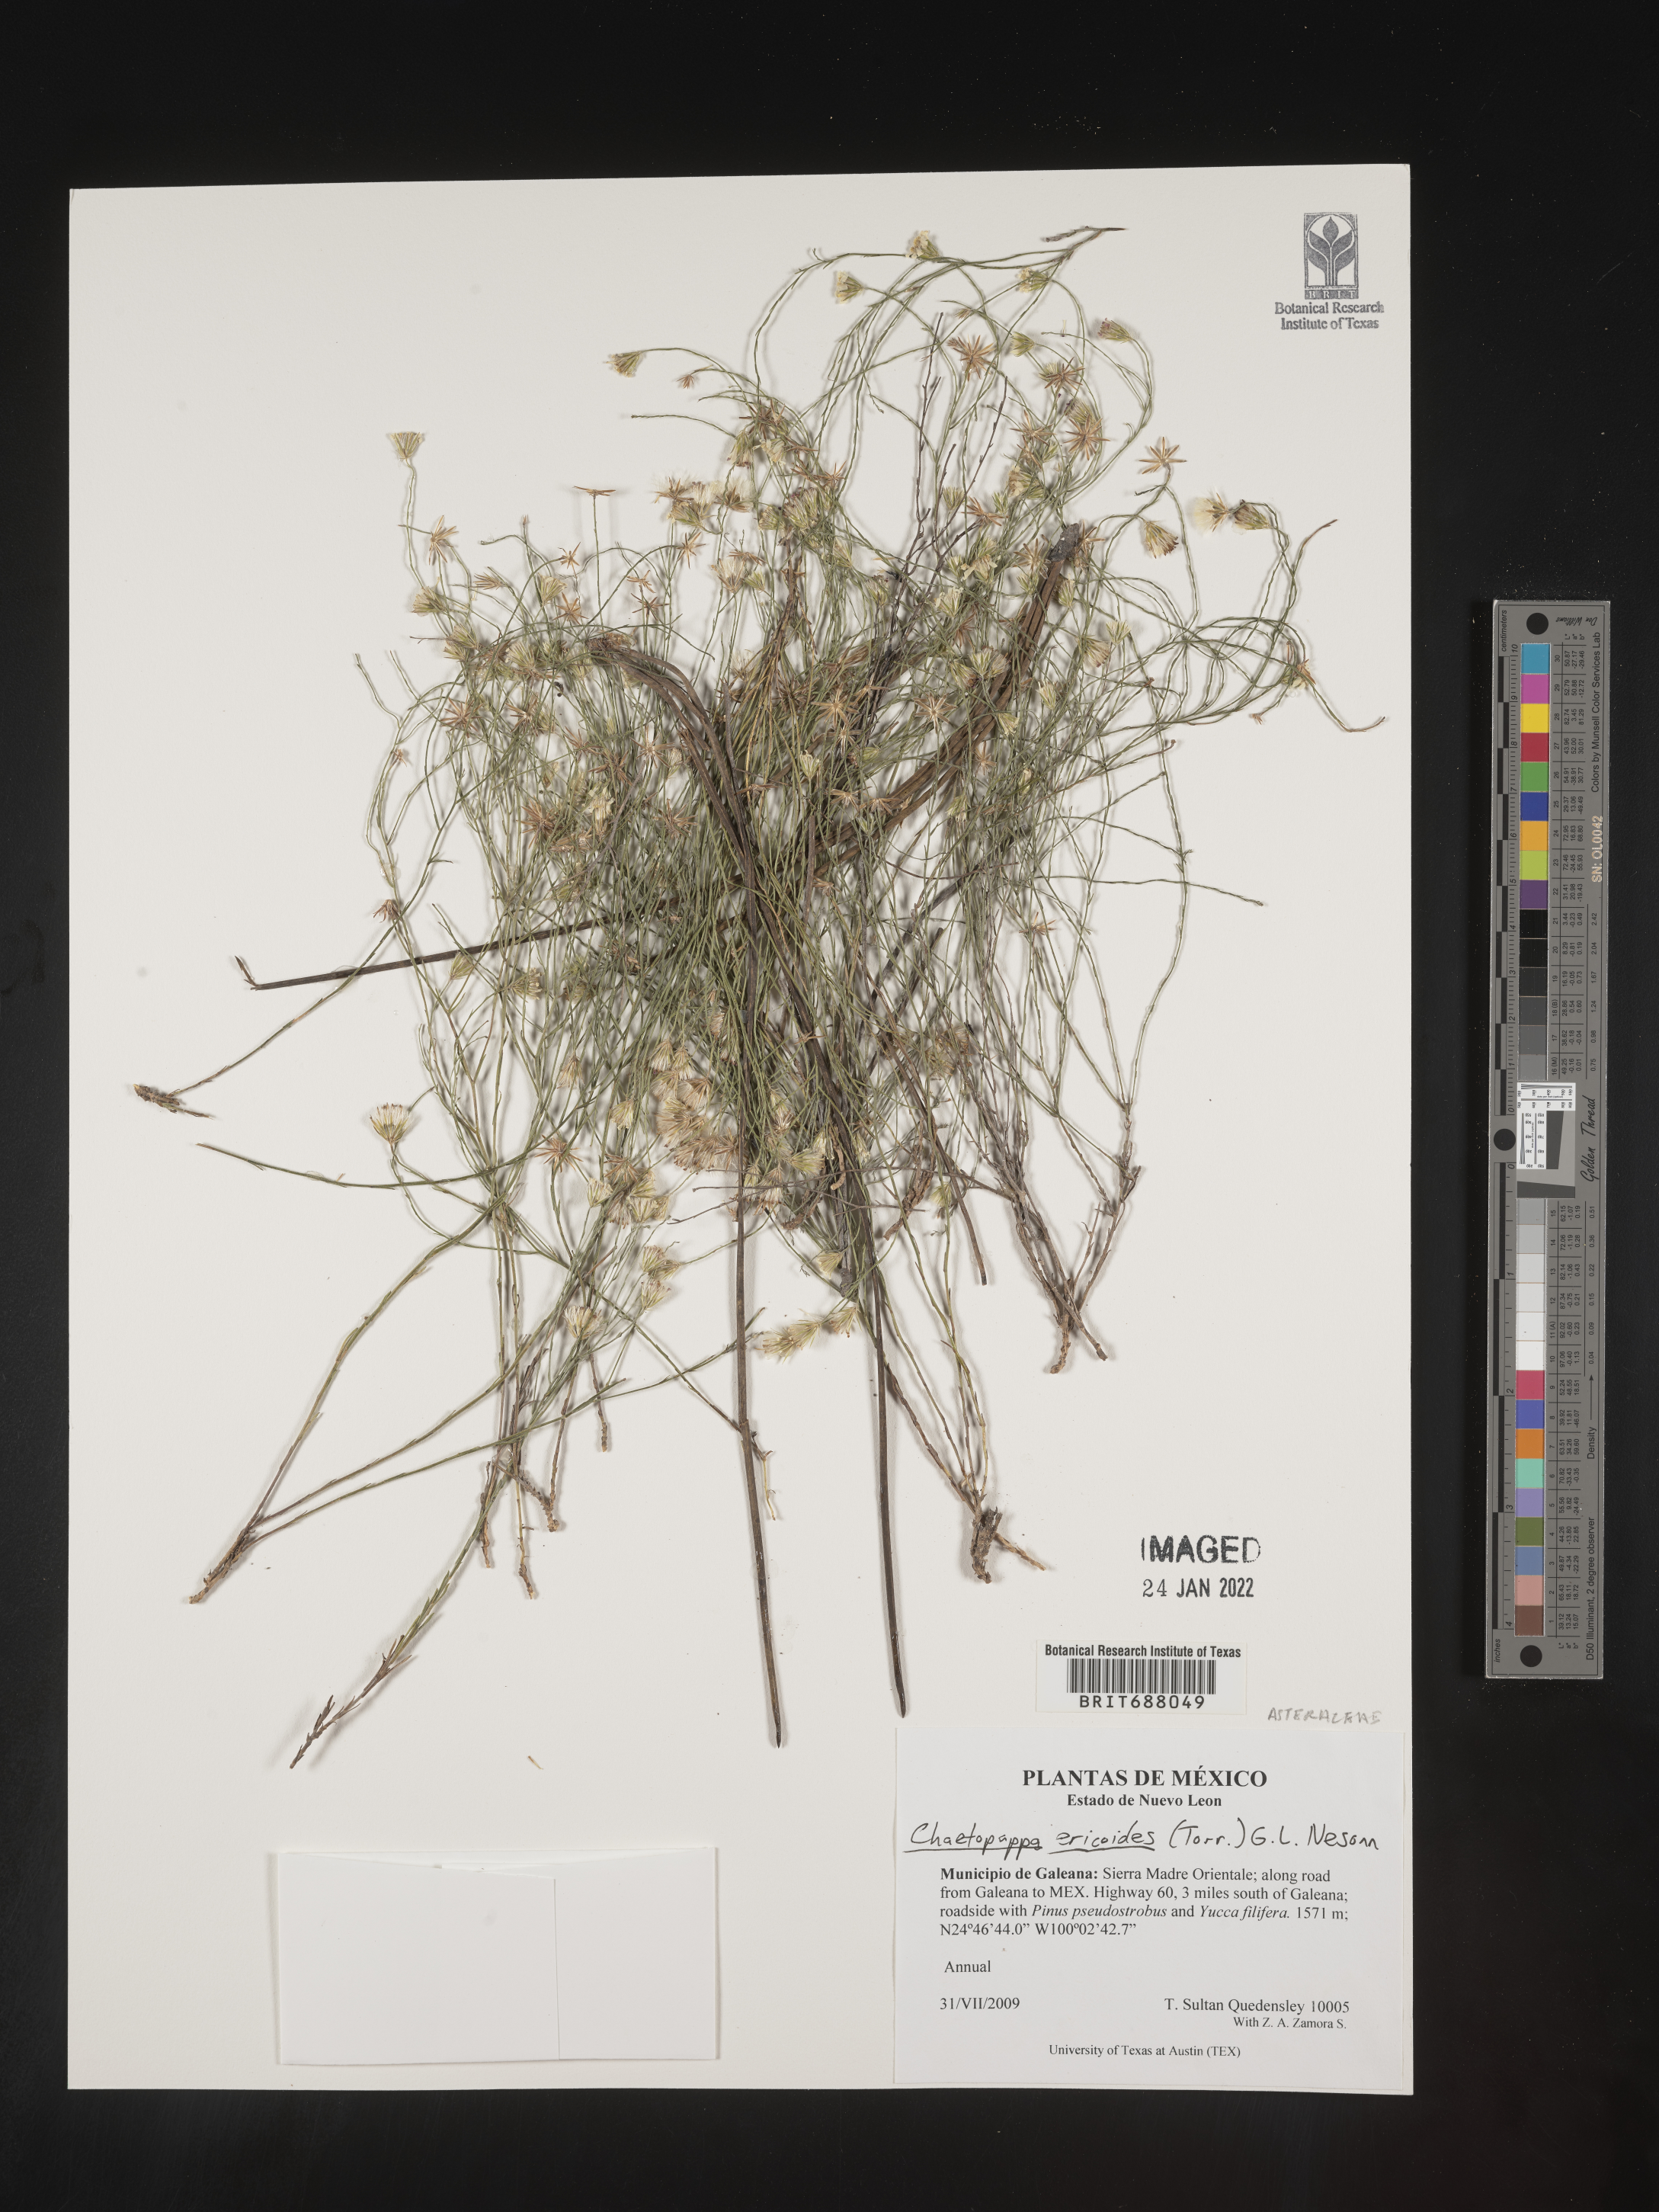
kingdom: Plantae
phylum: Tracheophyta
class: Magnoliopsida
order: Asterales
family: Asteraceae
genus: Chaetopappa
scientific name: Chaetopappa
